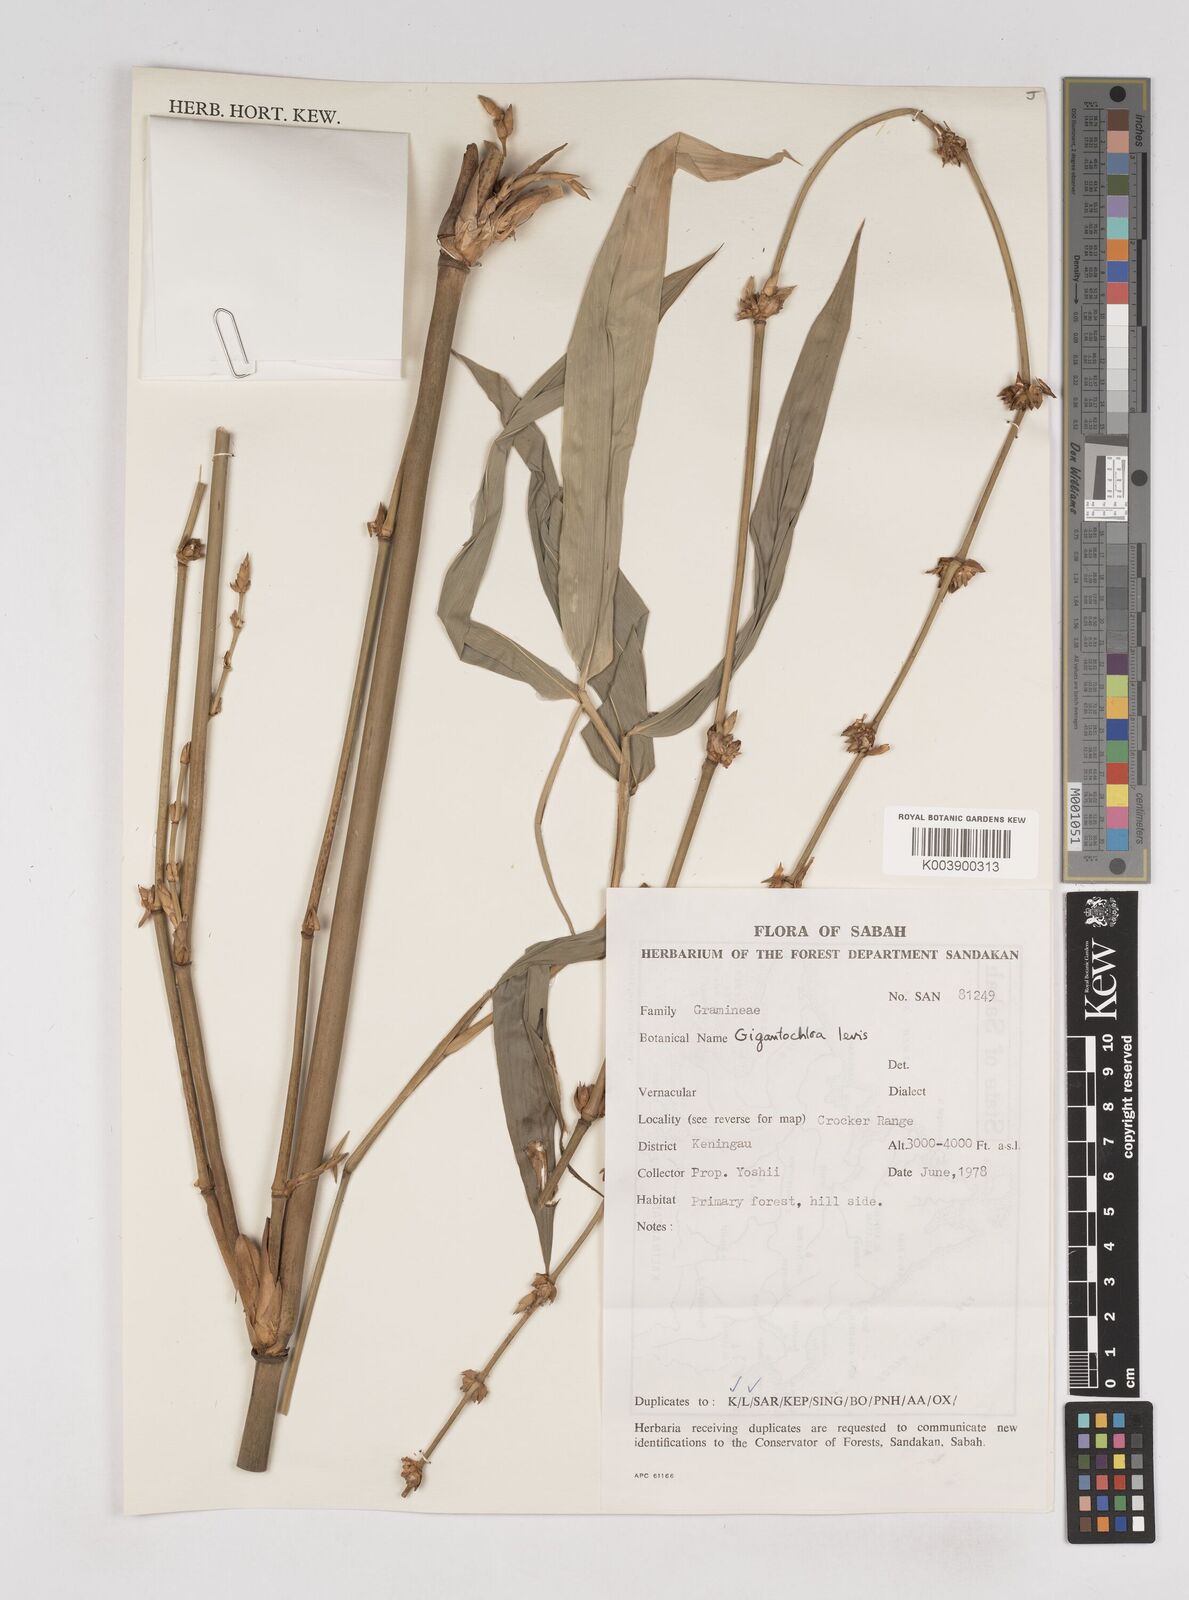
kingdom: Plantae
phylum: Tracheophyta
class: Liliopsida
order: Poales
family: Poaceae
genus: Gigantochloa
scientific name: Gigantochloa levis
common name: Smooth-shoot gigantochloa
